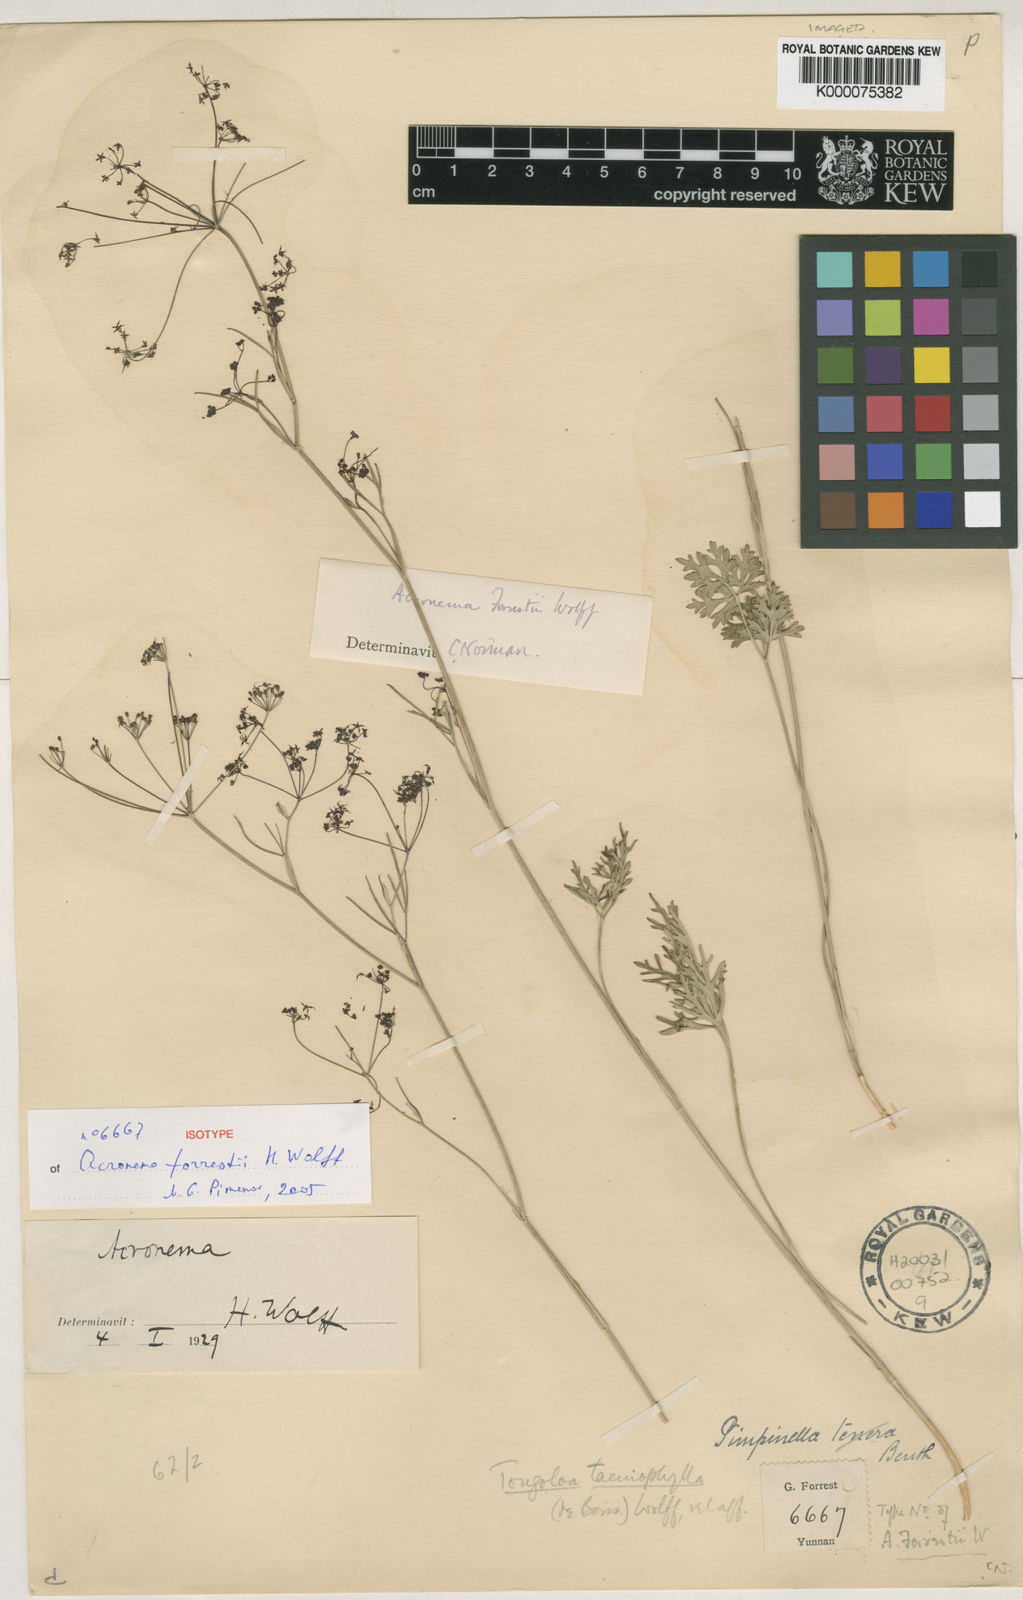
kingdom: Plantae
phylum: Tracheophyta
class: Magnoliopsida
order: Apiales
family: Apiaceae
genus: Acronema
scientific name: Acronema forrestii
